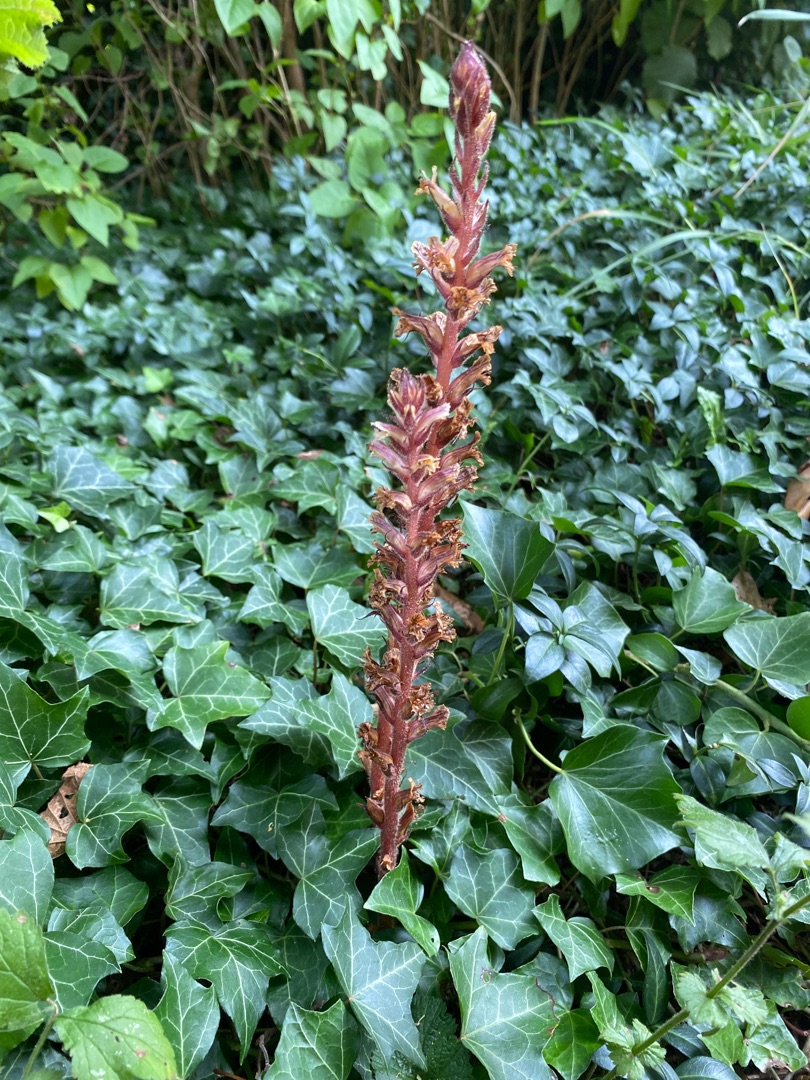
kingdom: Plantae
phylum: Tracheophyta
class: Magnoliopsida
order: Lamiales
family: Orobanchaceae
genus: Orobanche
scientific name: Orobanche hederae
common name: Vedbend-gyvelkvæler
